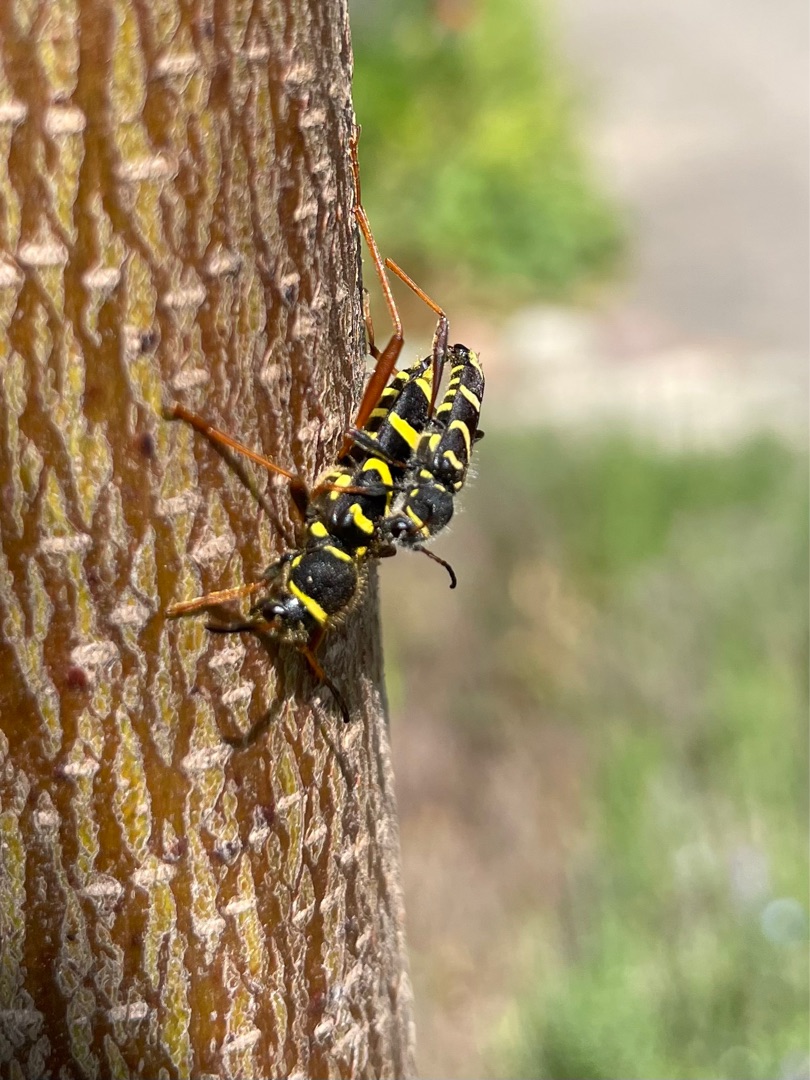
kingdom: Animalia
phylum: Arthropoda
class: Insecta
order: Coleoptera
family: Cerambycidae
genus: Clytus
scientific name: Clytus arietis
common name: Lille hvepsebuk
